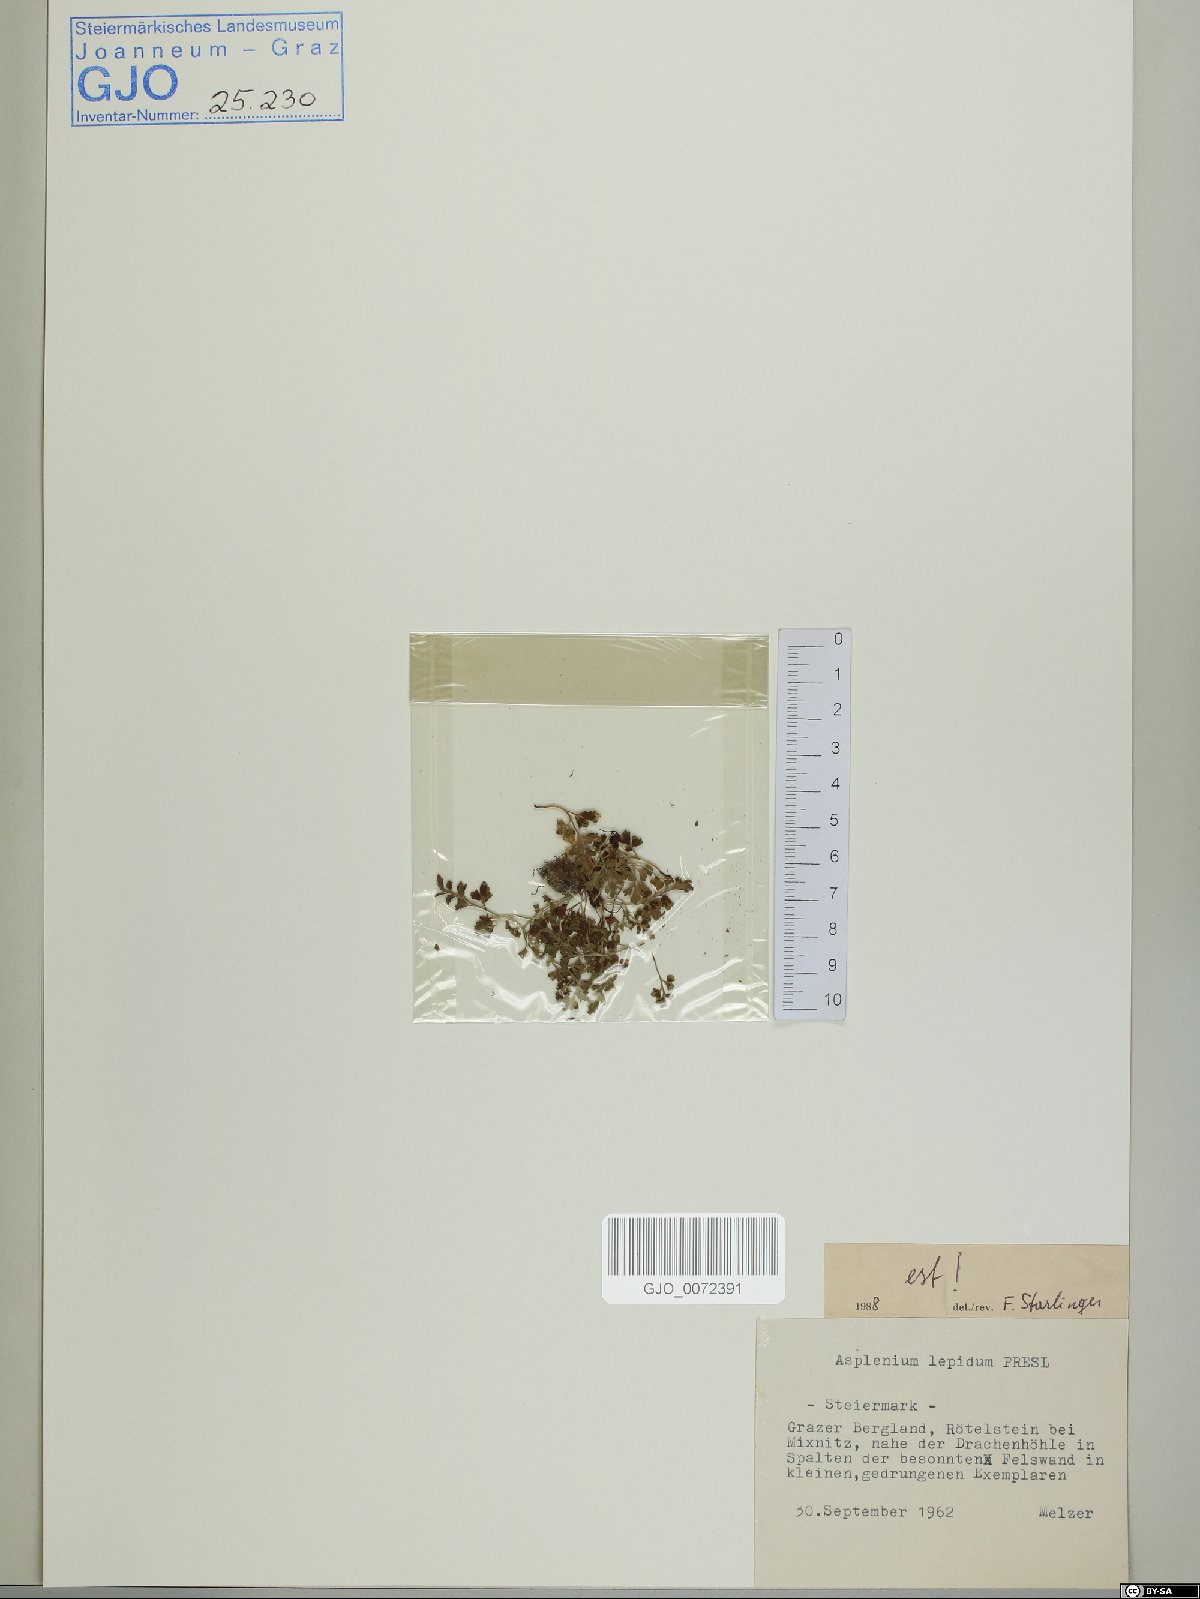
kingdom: Plantae
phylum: Tracheophyta
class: Polypodiopsida
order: Polypodiales
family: Aspleniaceae
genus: Asplenium
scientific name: Asplenium lepidum
